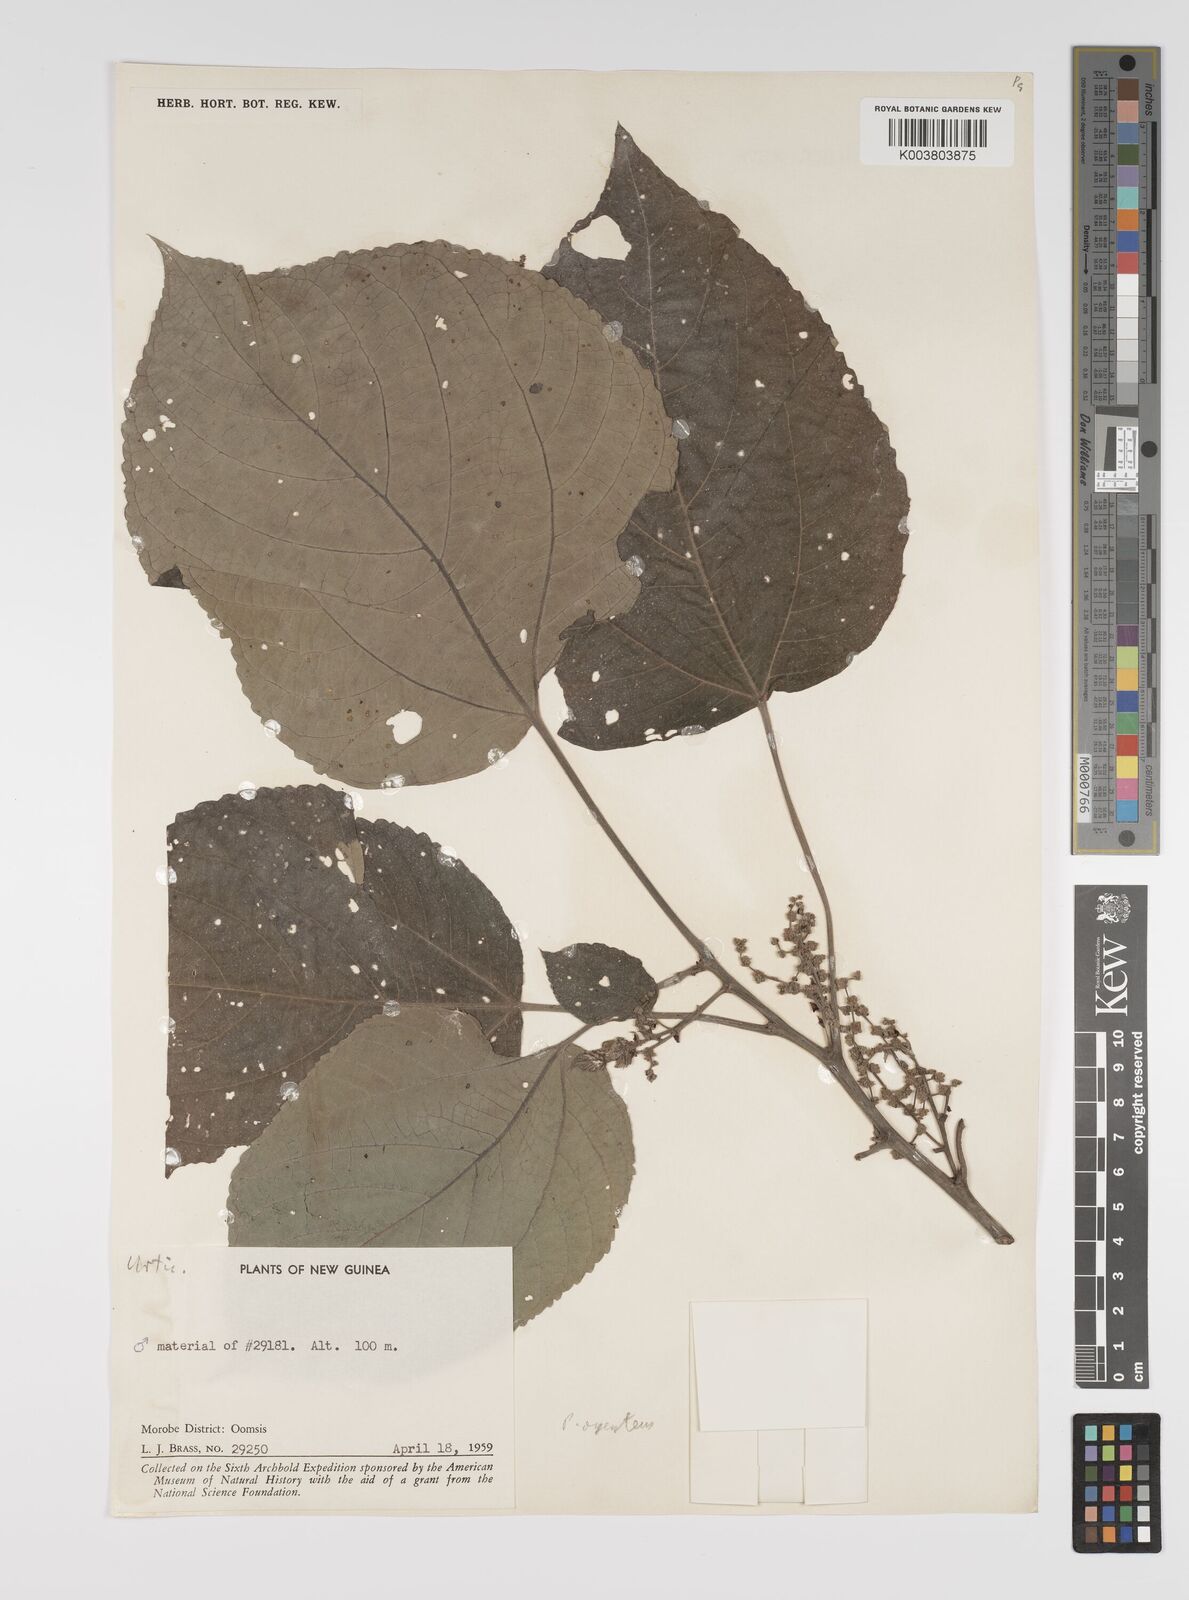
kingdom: Plantae
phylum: Tracheophyta
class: Magnoliopsida
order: Rosales
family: Urticaceae
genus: Pipturus
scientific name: Pipturus argenteus
